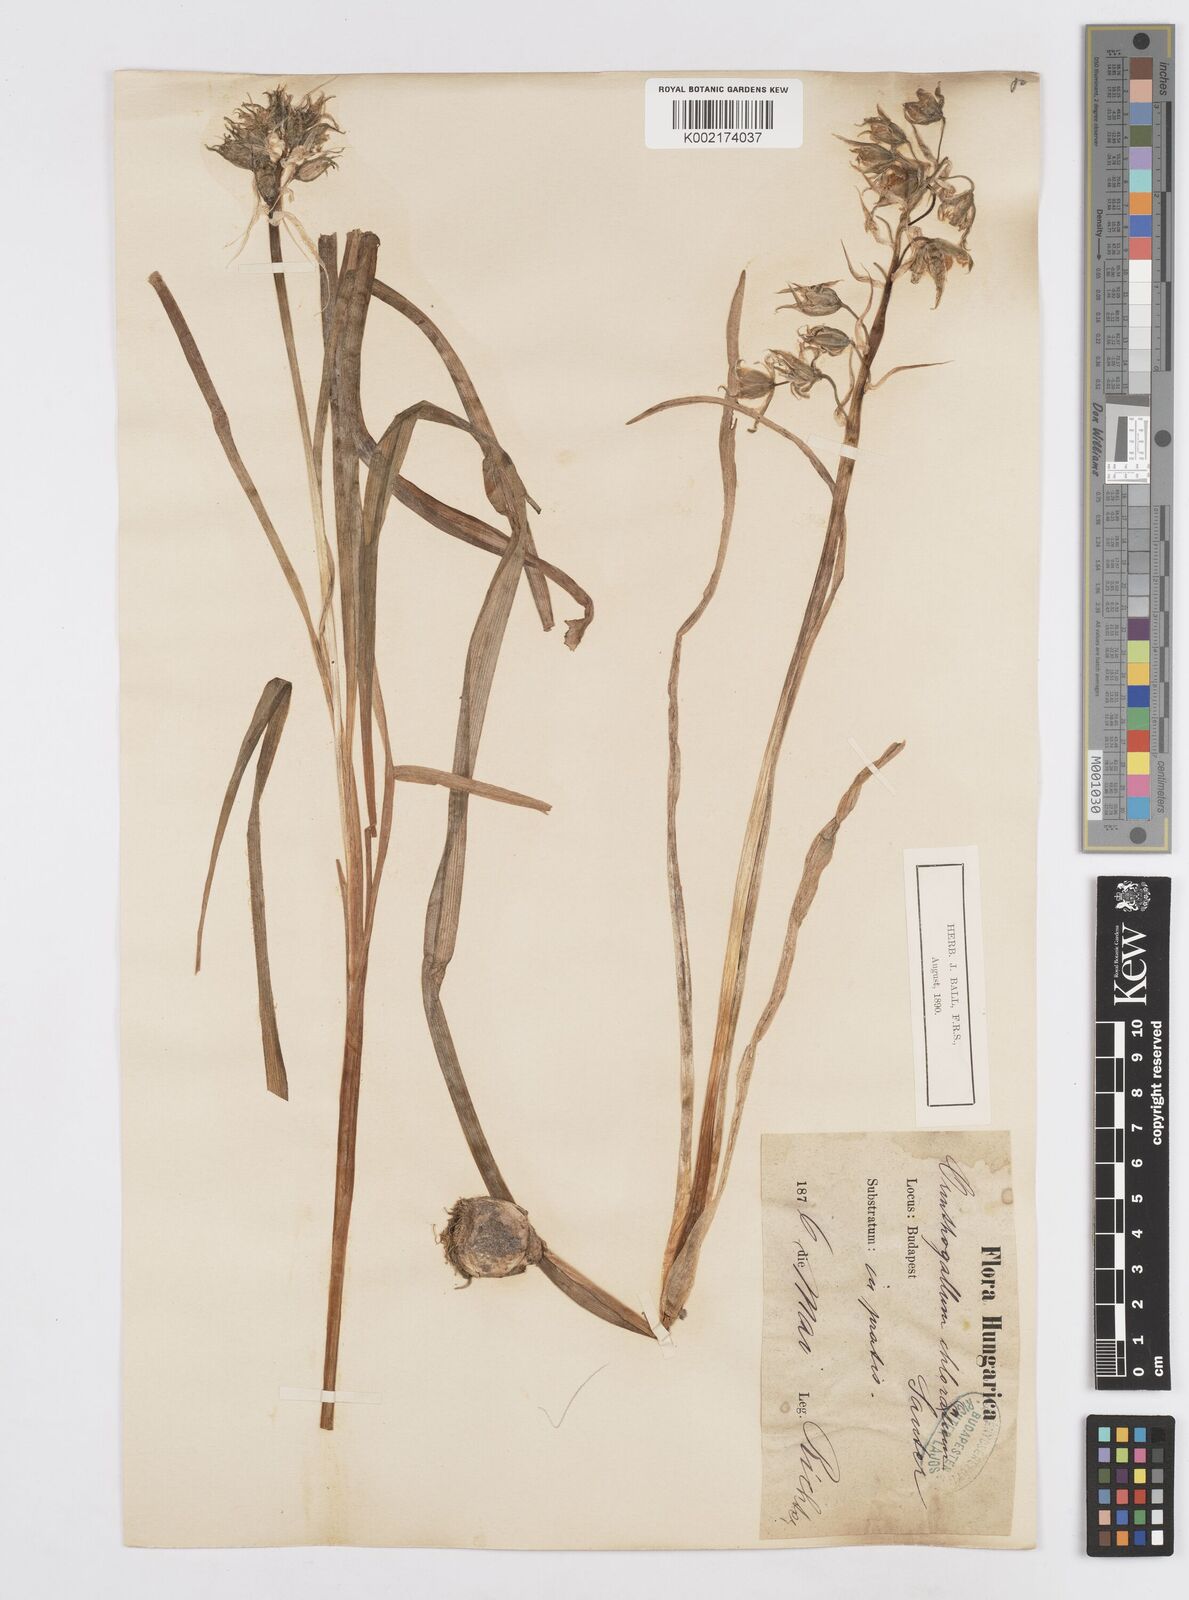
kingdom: Plantae
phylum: Tracheophyta
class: Liliopsida
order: Asparagales
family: Asparagaceae
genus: Ornithogalum
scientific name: Ornithogalum boucheanum
